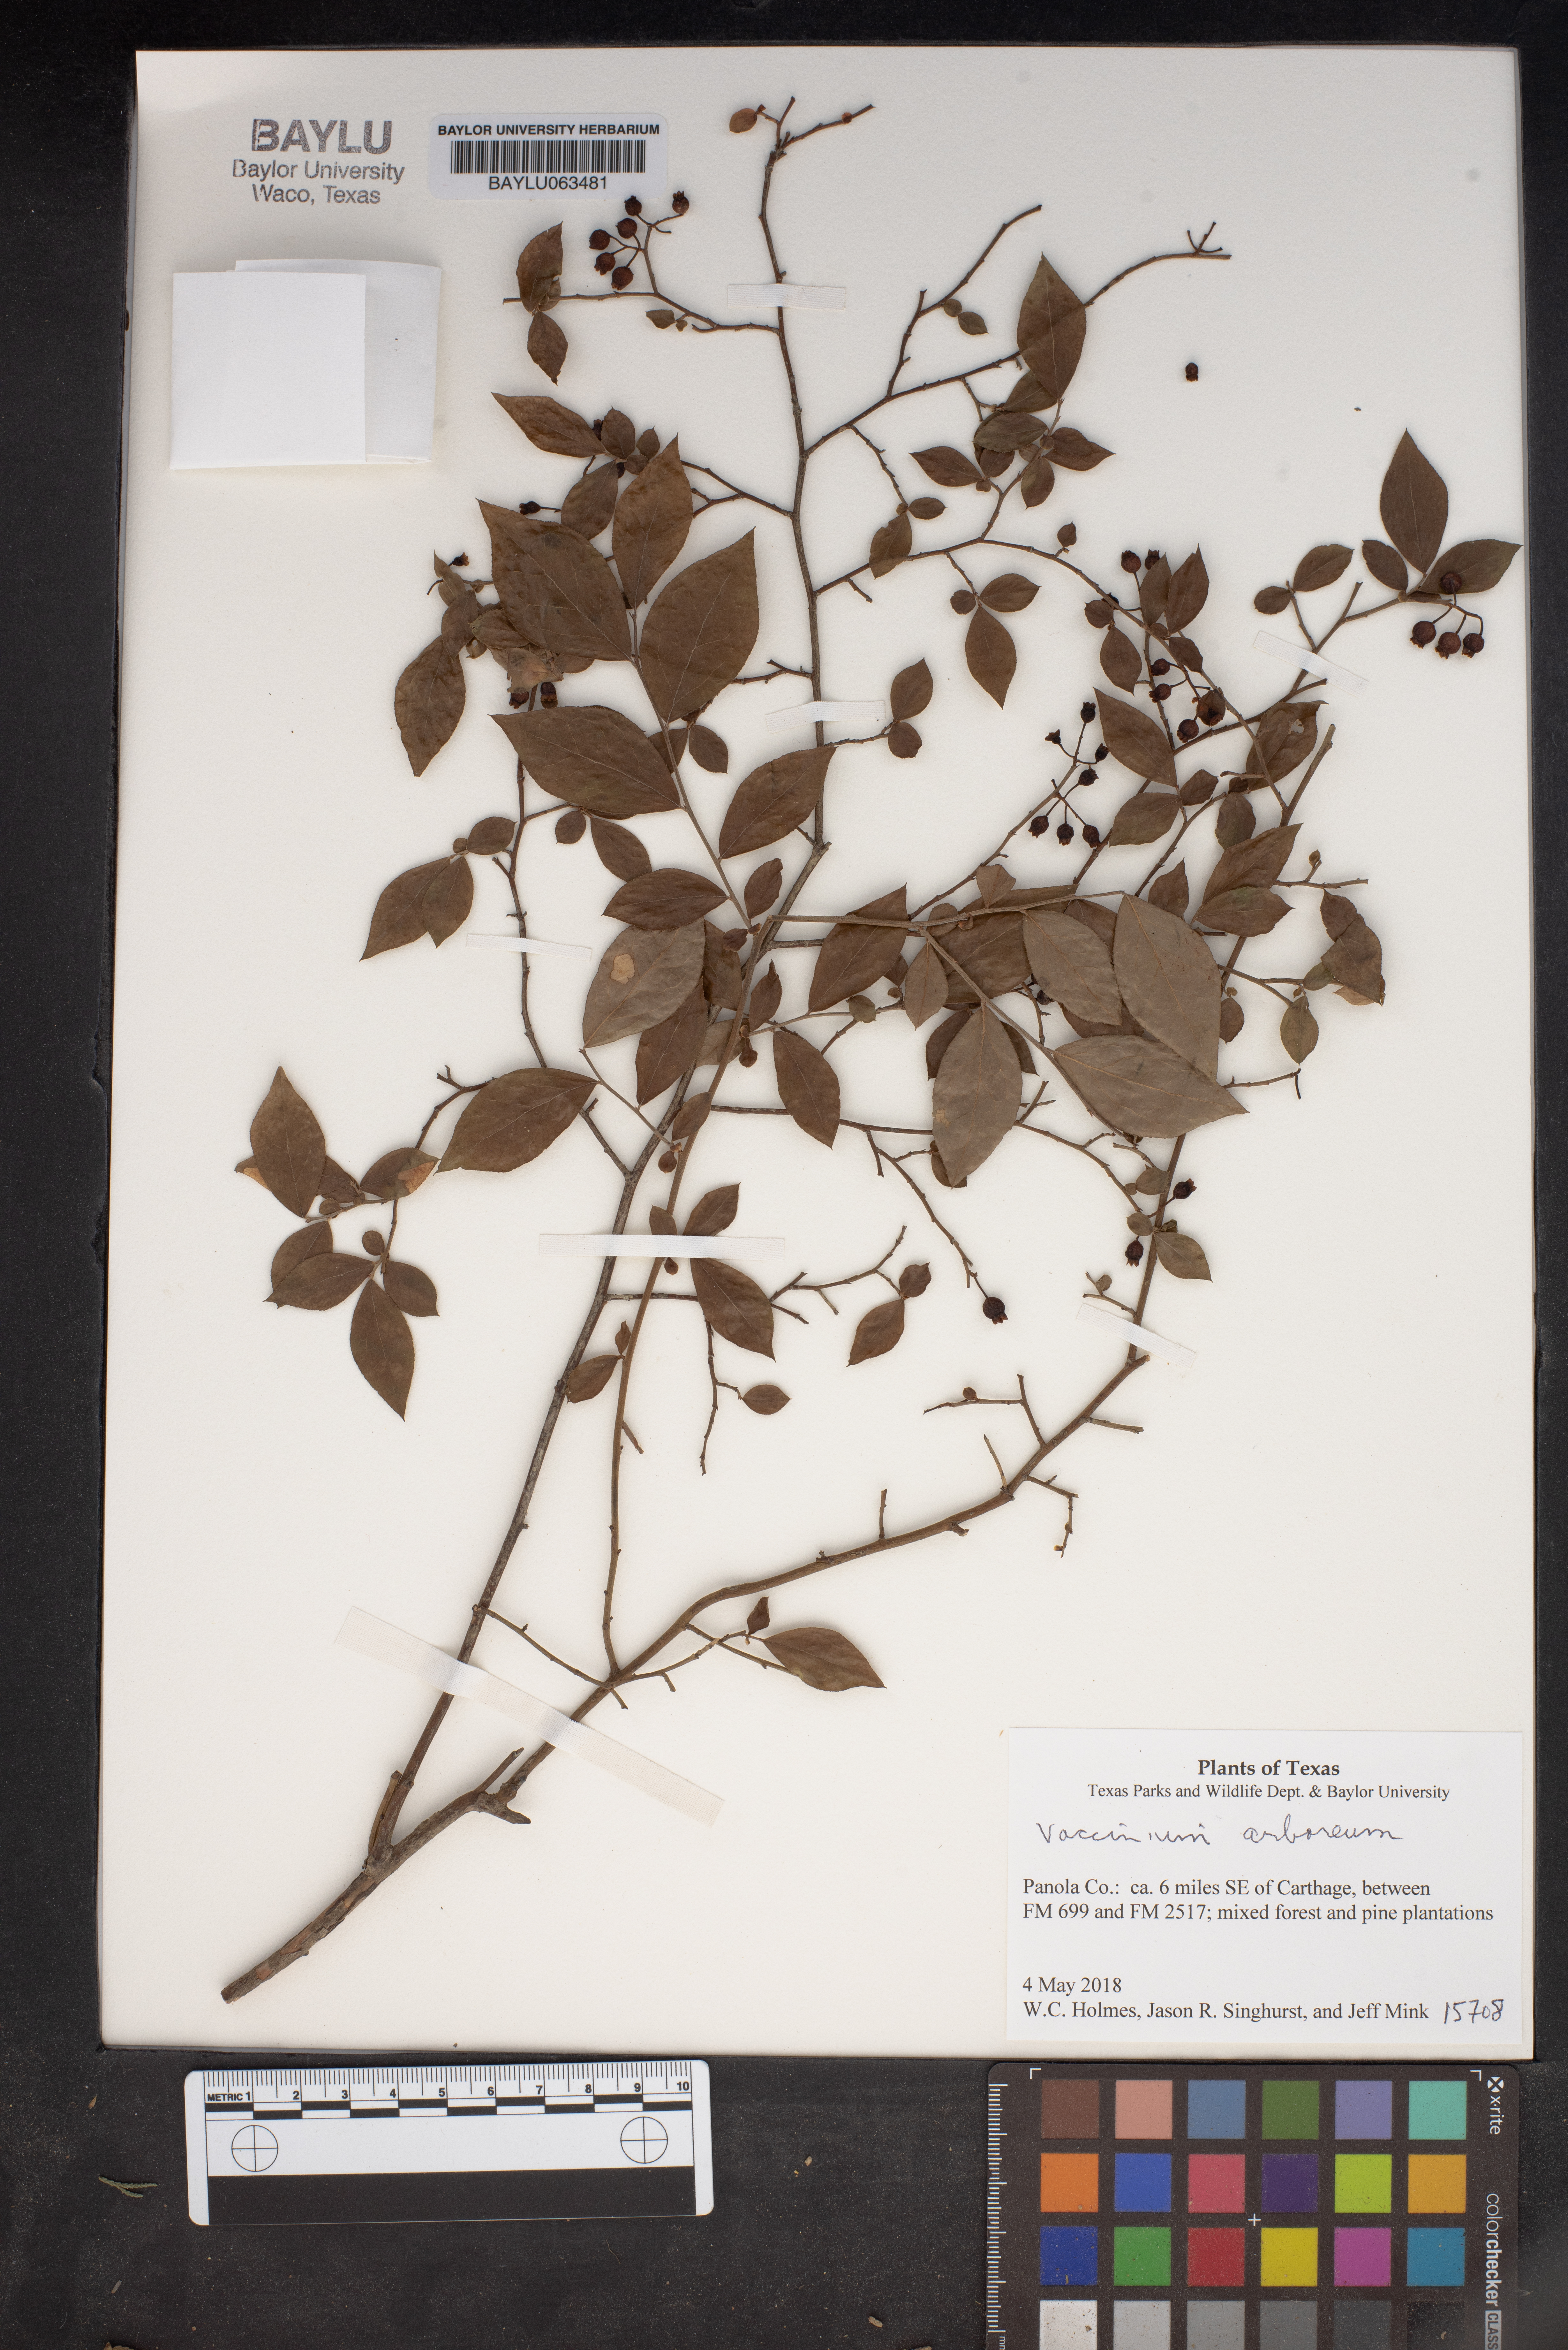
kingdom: Plantae
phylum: Tracheophyta
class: Magnoliopsida
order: Ericales
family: Ericaceae
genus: Vaccinium
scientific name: Vaccinium arboreum
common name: Farkleberry
